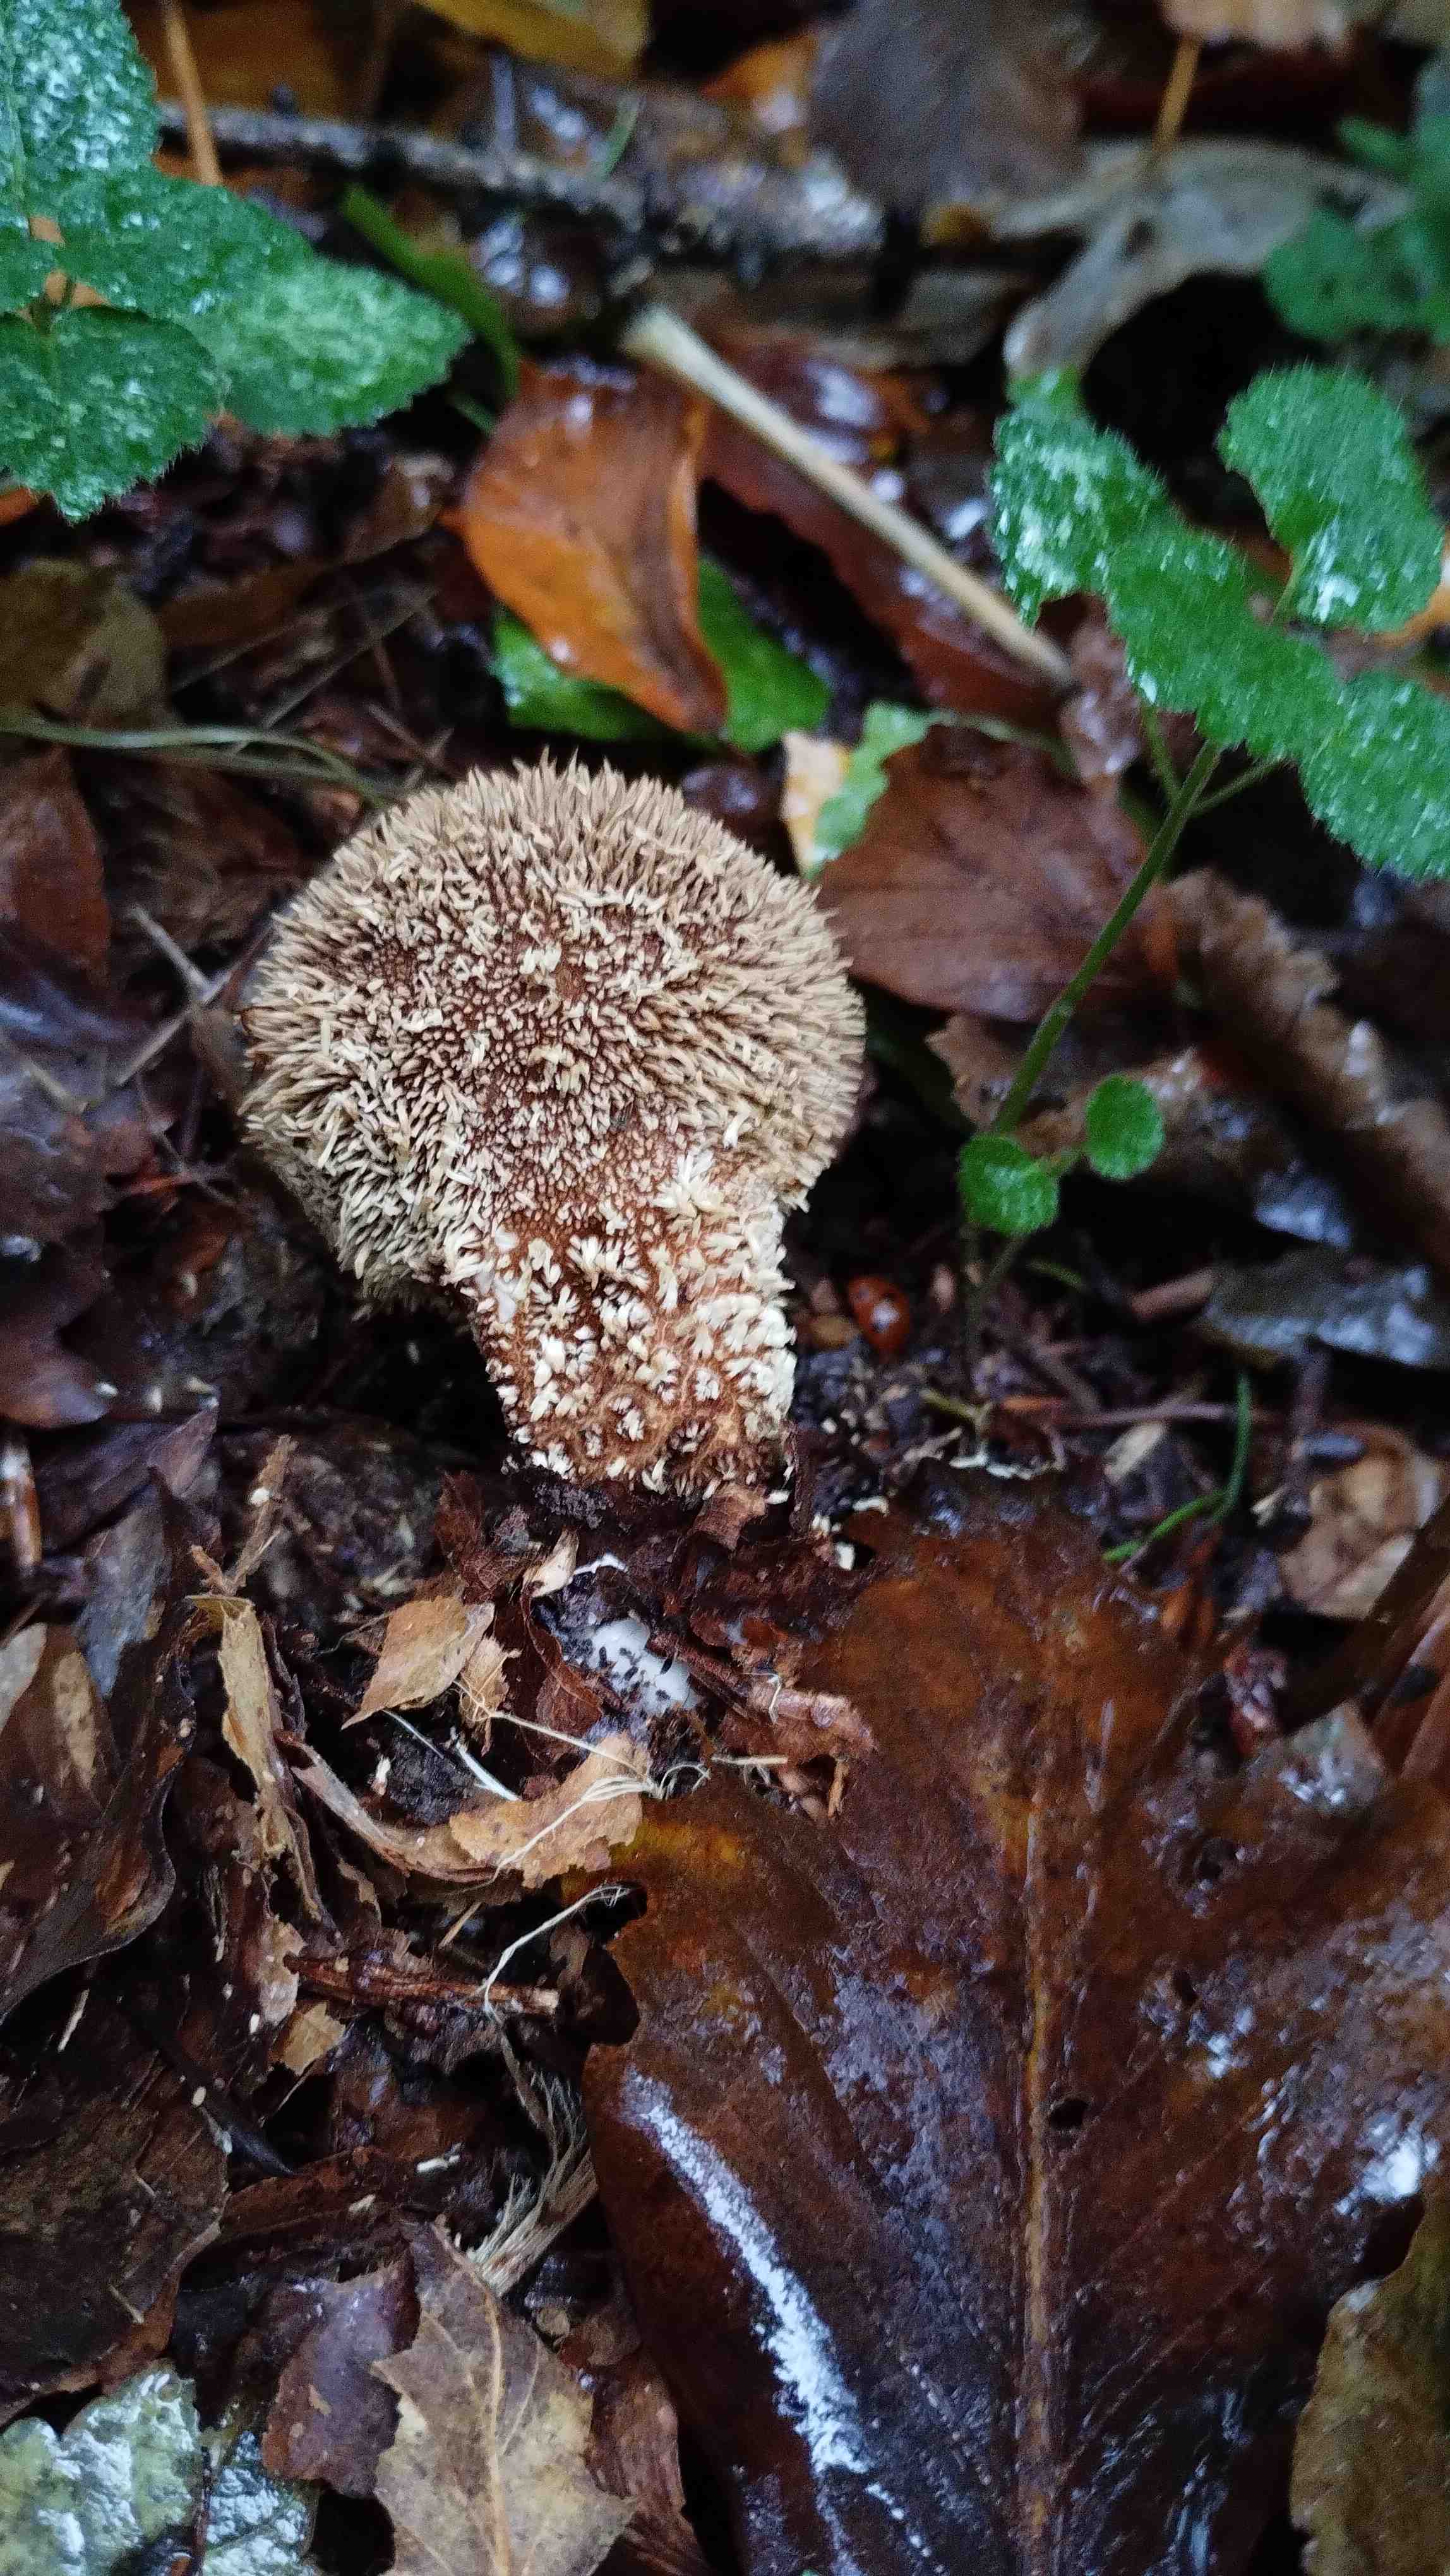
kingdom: Fungi
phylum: Basidiomycota
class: Agaricomycetes
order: Agaricales
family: Lycoperdaceae
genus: Lycoperdon
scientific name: Lycoperdon echinatum
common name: pindsvine-støvbold
